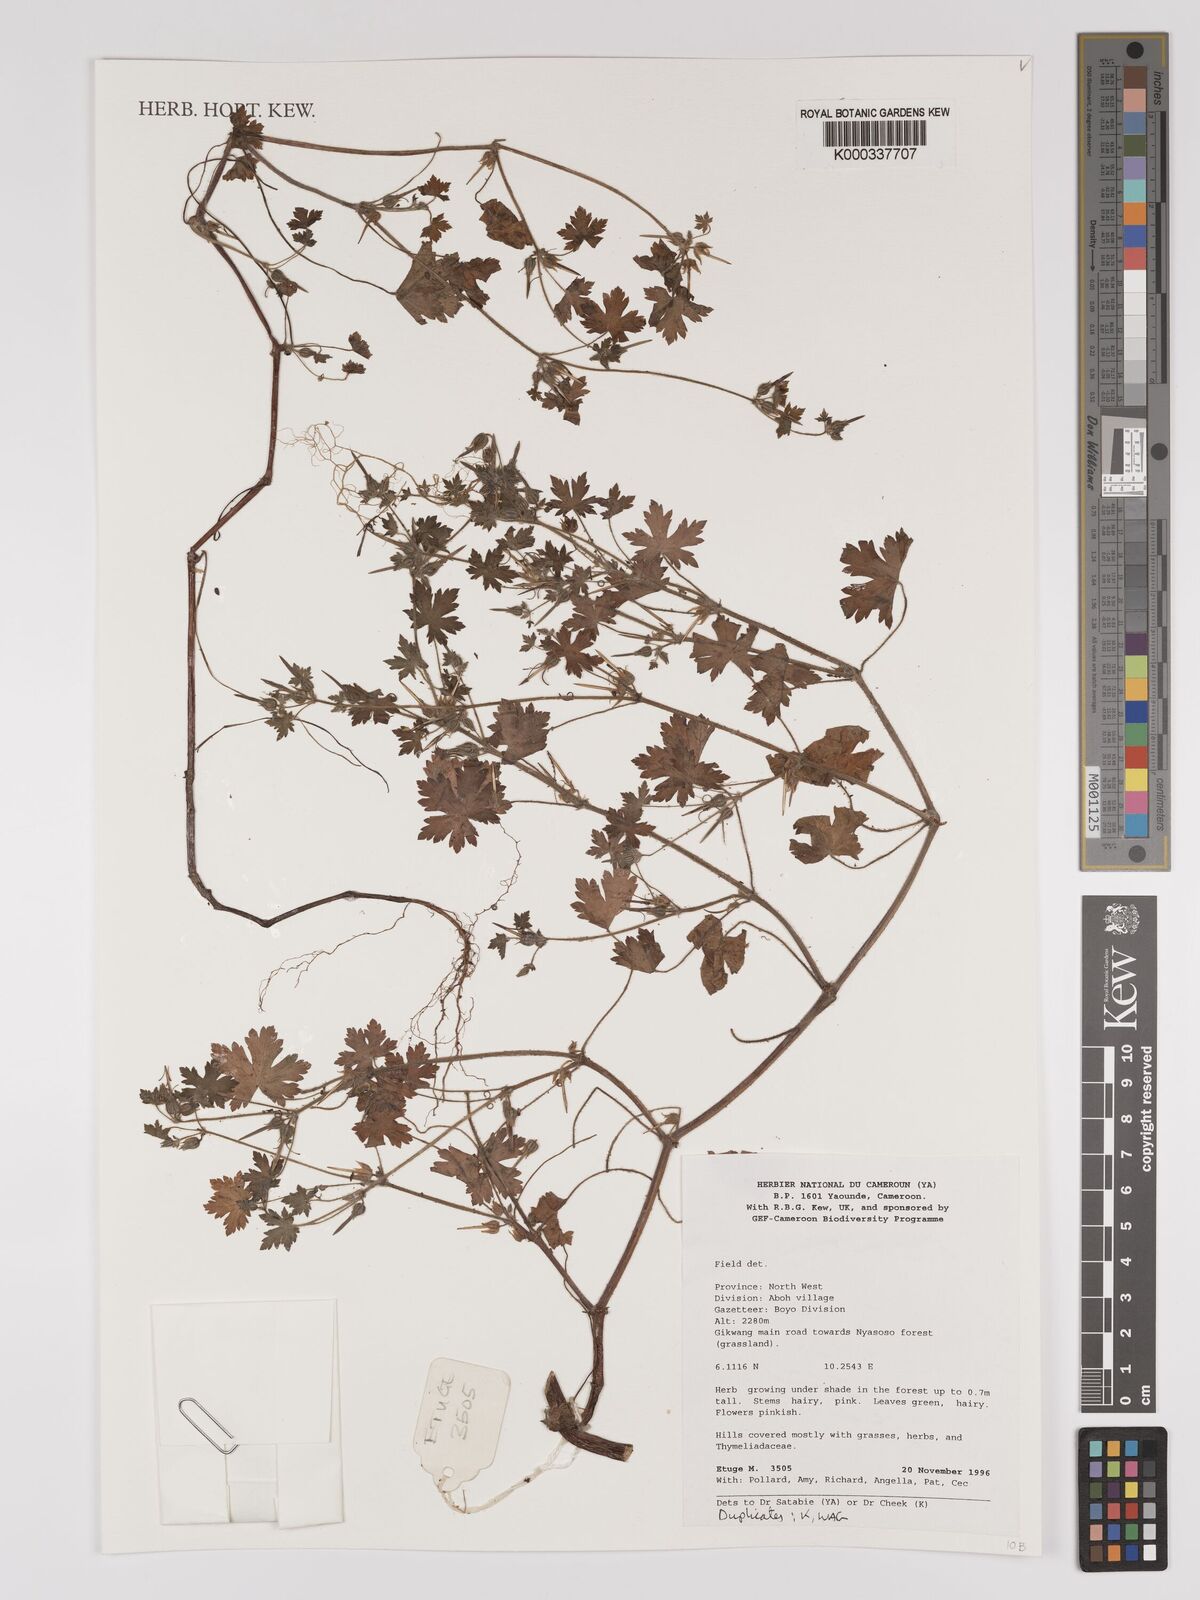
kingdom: Plantae
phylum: Tracheophyta
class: Magnoliopsida
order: Caryophyllales
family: Amaranthaceae
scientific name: Amaranthaceae
